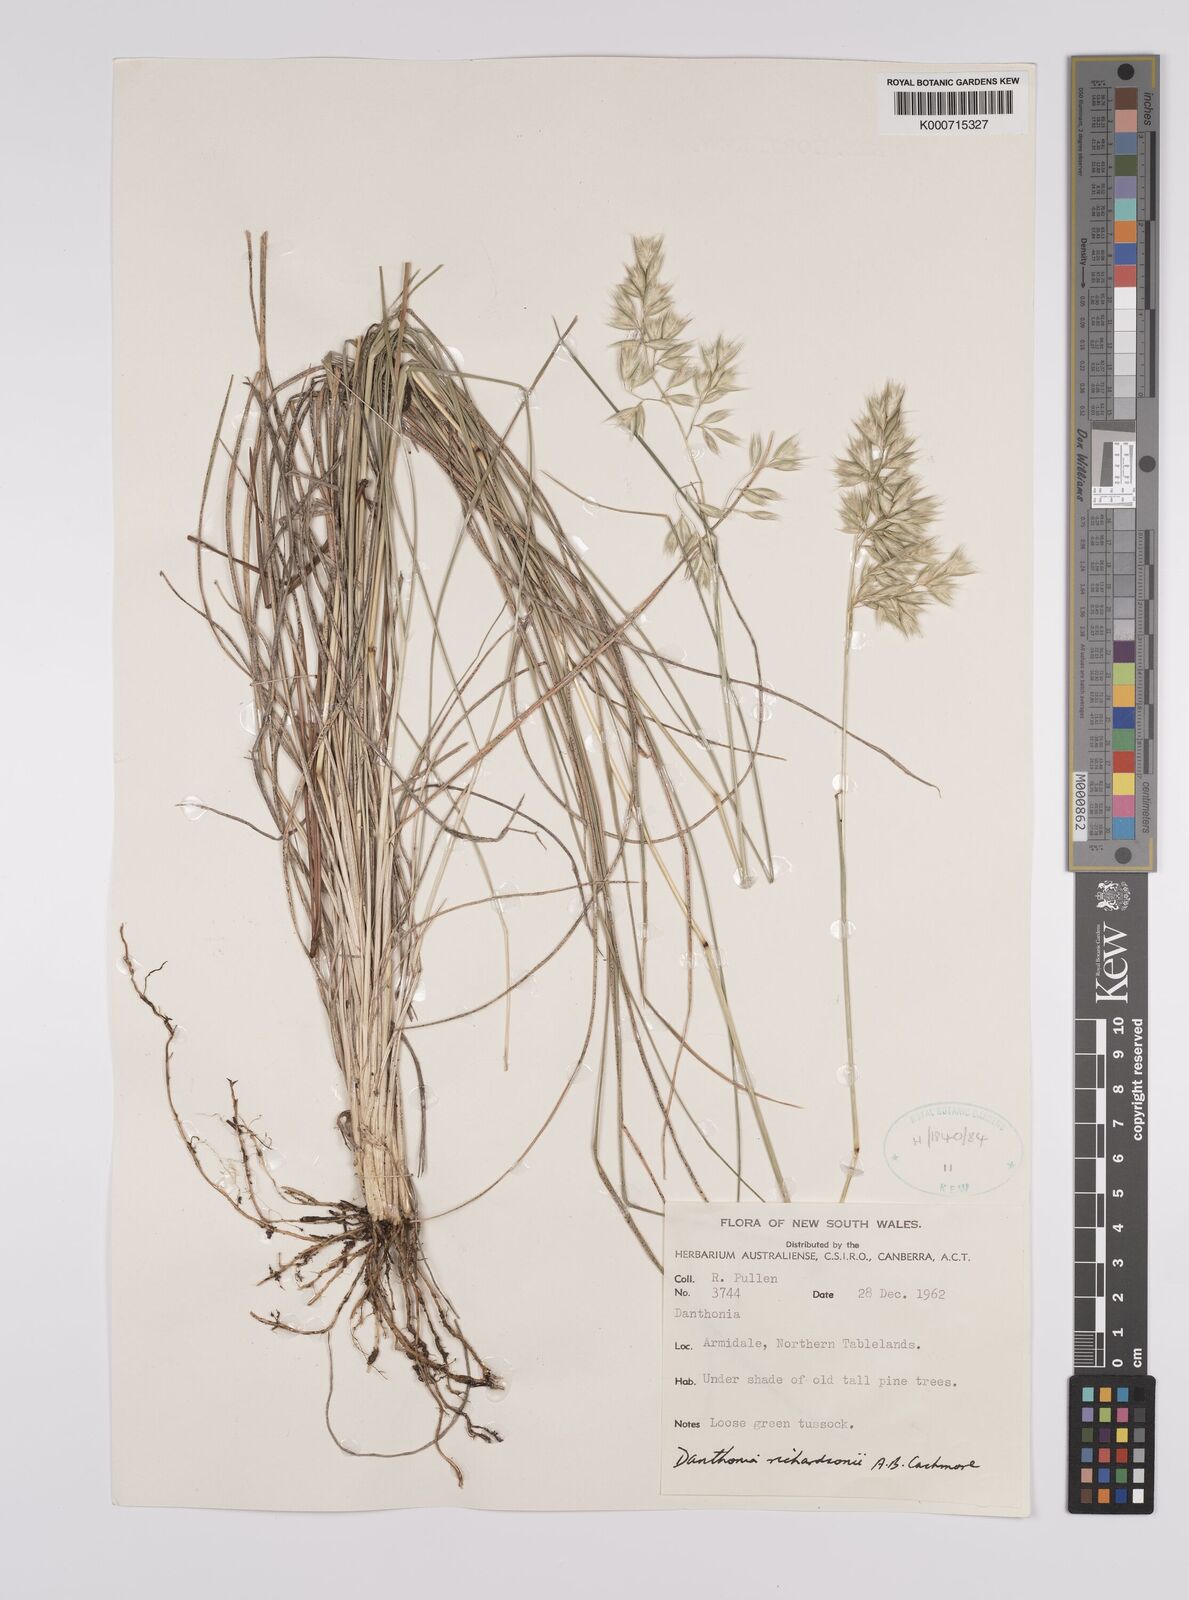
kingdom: Plantae
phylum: Tracheophyta
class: Liliopsida
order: Poales
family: Poaceae
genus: Rytidosperma
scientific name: Rytidosperma richardsonii
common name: Straw wallaby-grass
